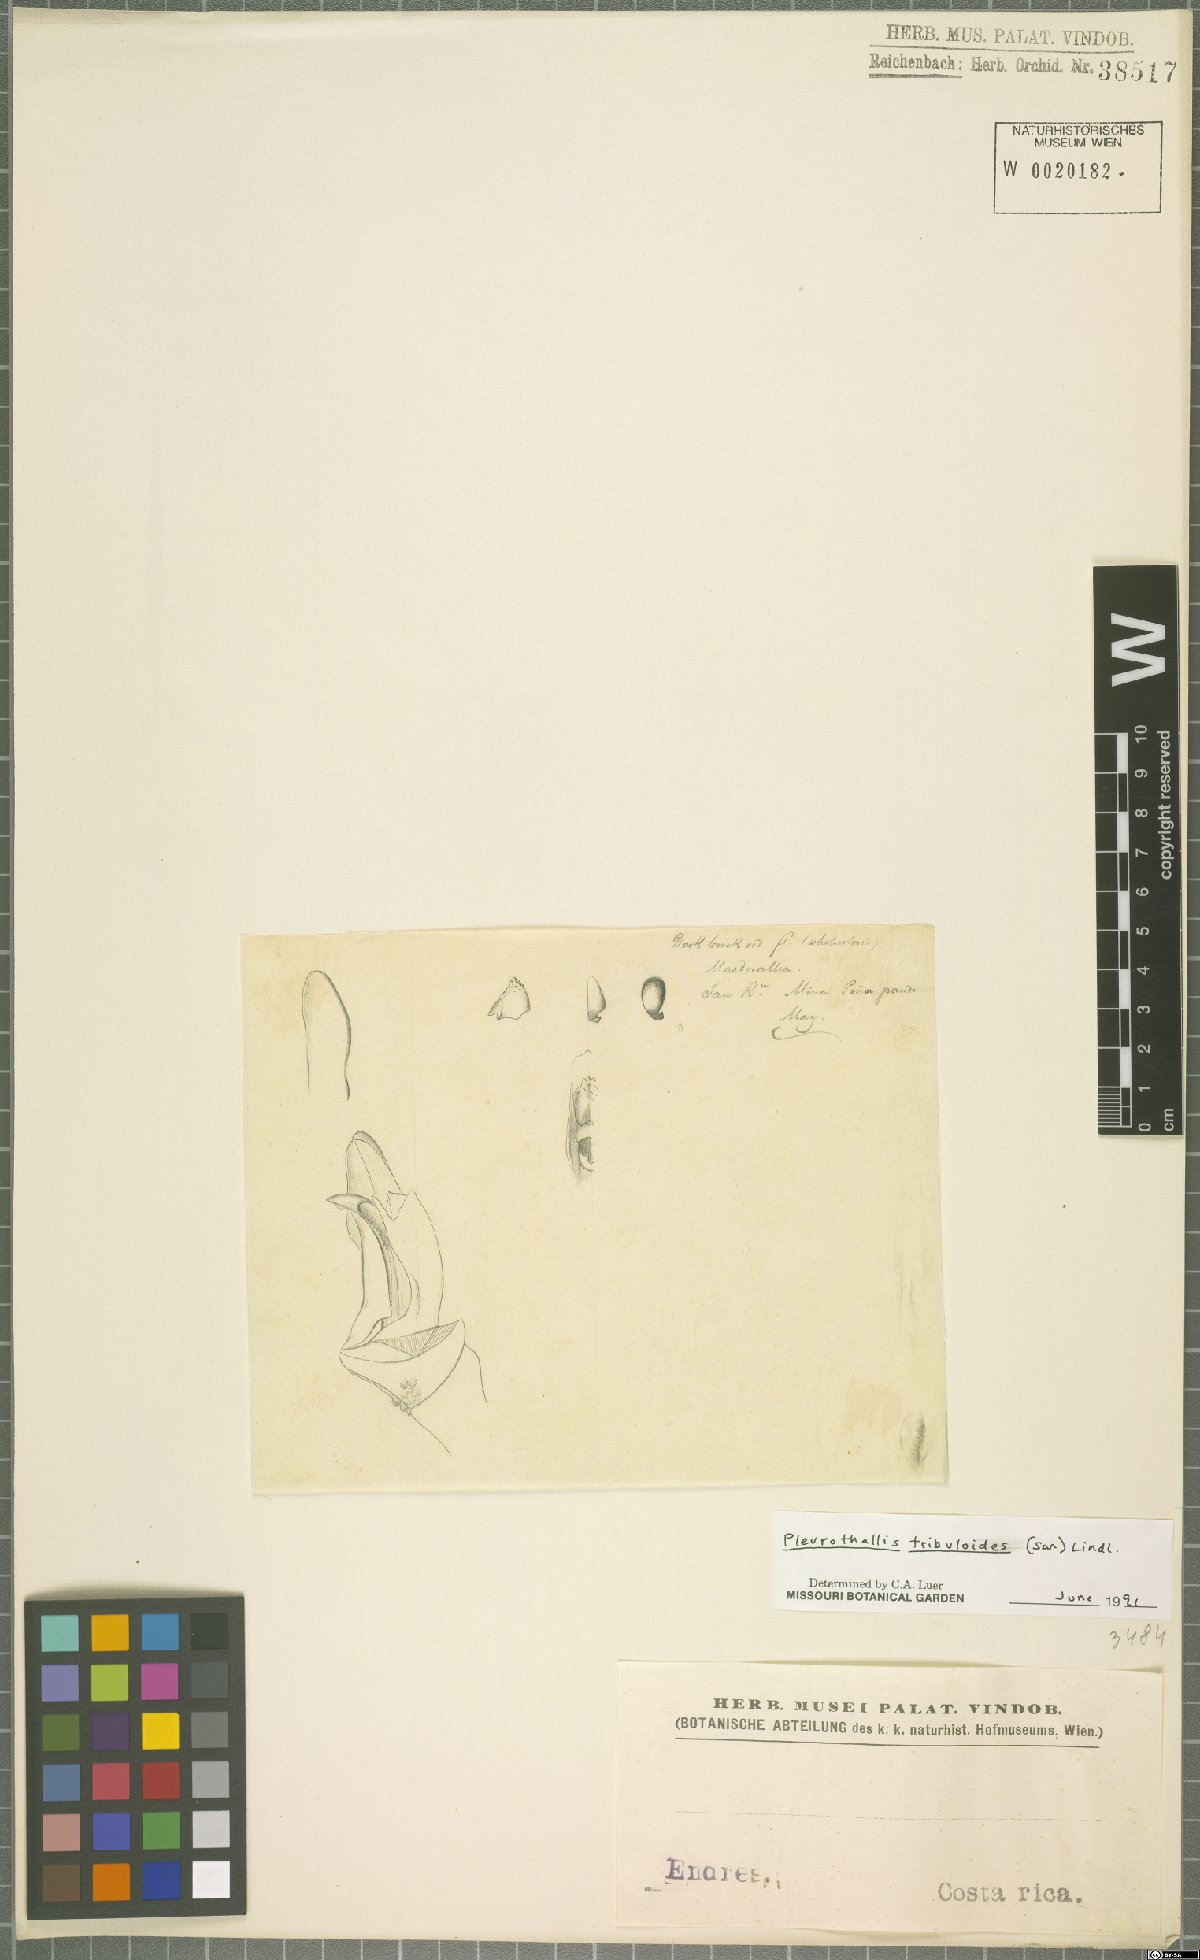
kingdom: Plantae
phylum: Tracheophyta
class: Liliopsida
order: Asparagales
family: Orchidaceae
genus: Specklinia
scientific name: Specklinia tribuloides
